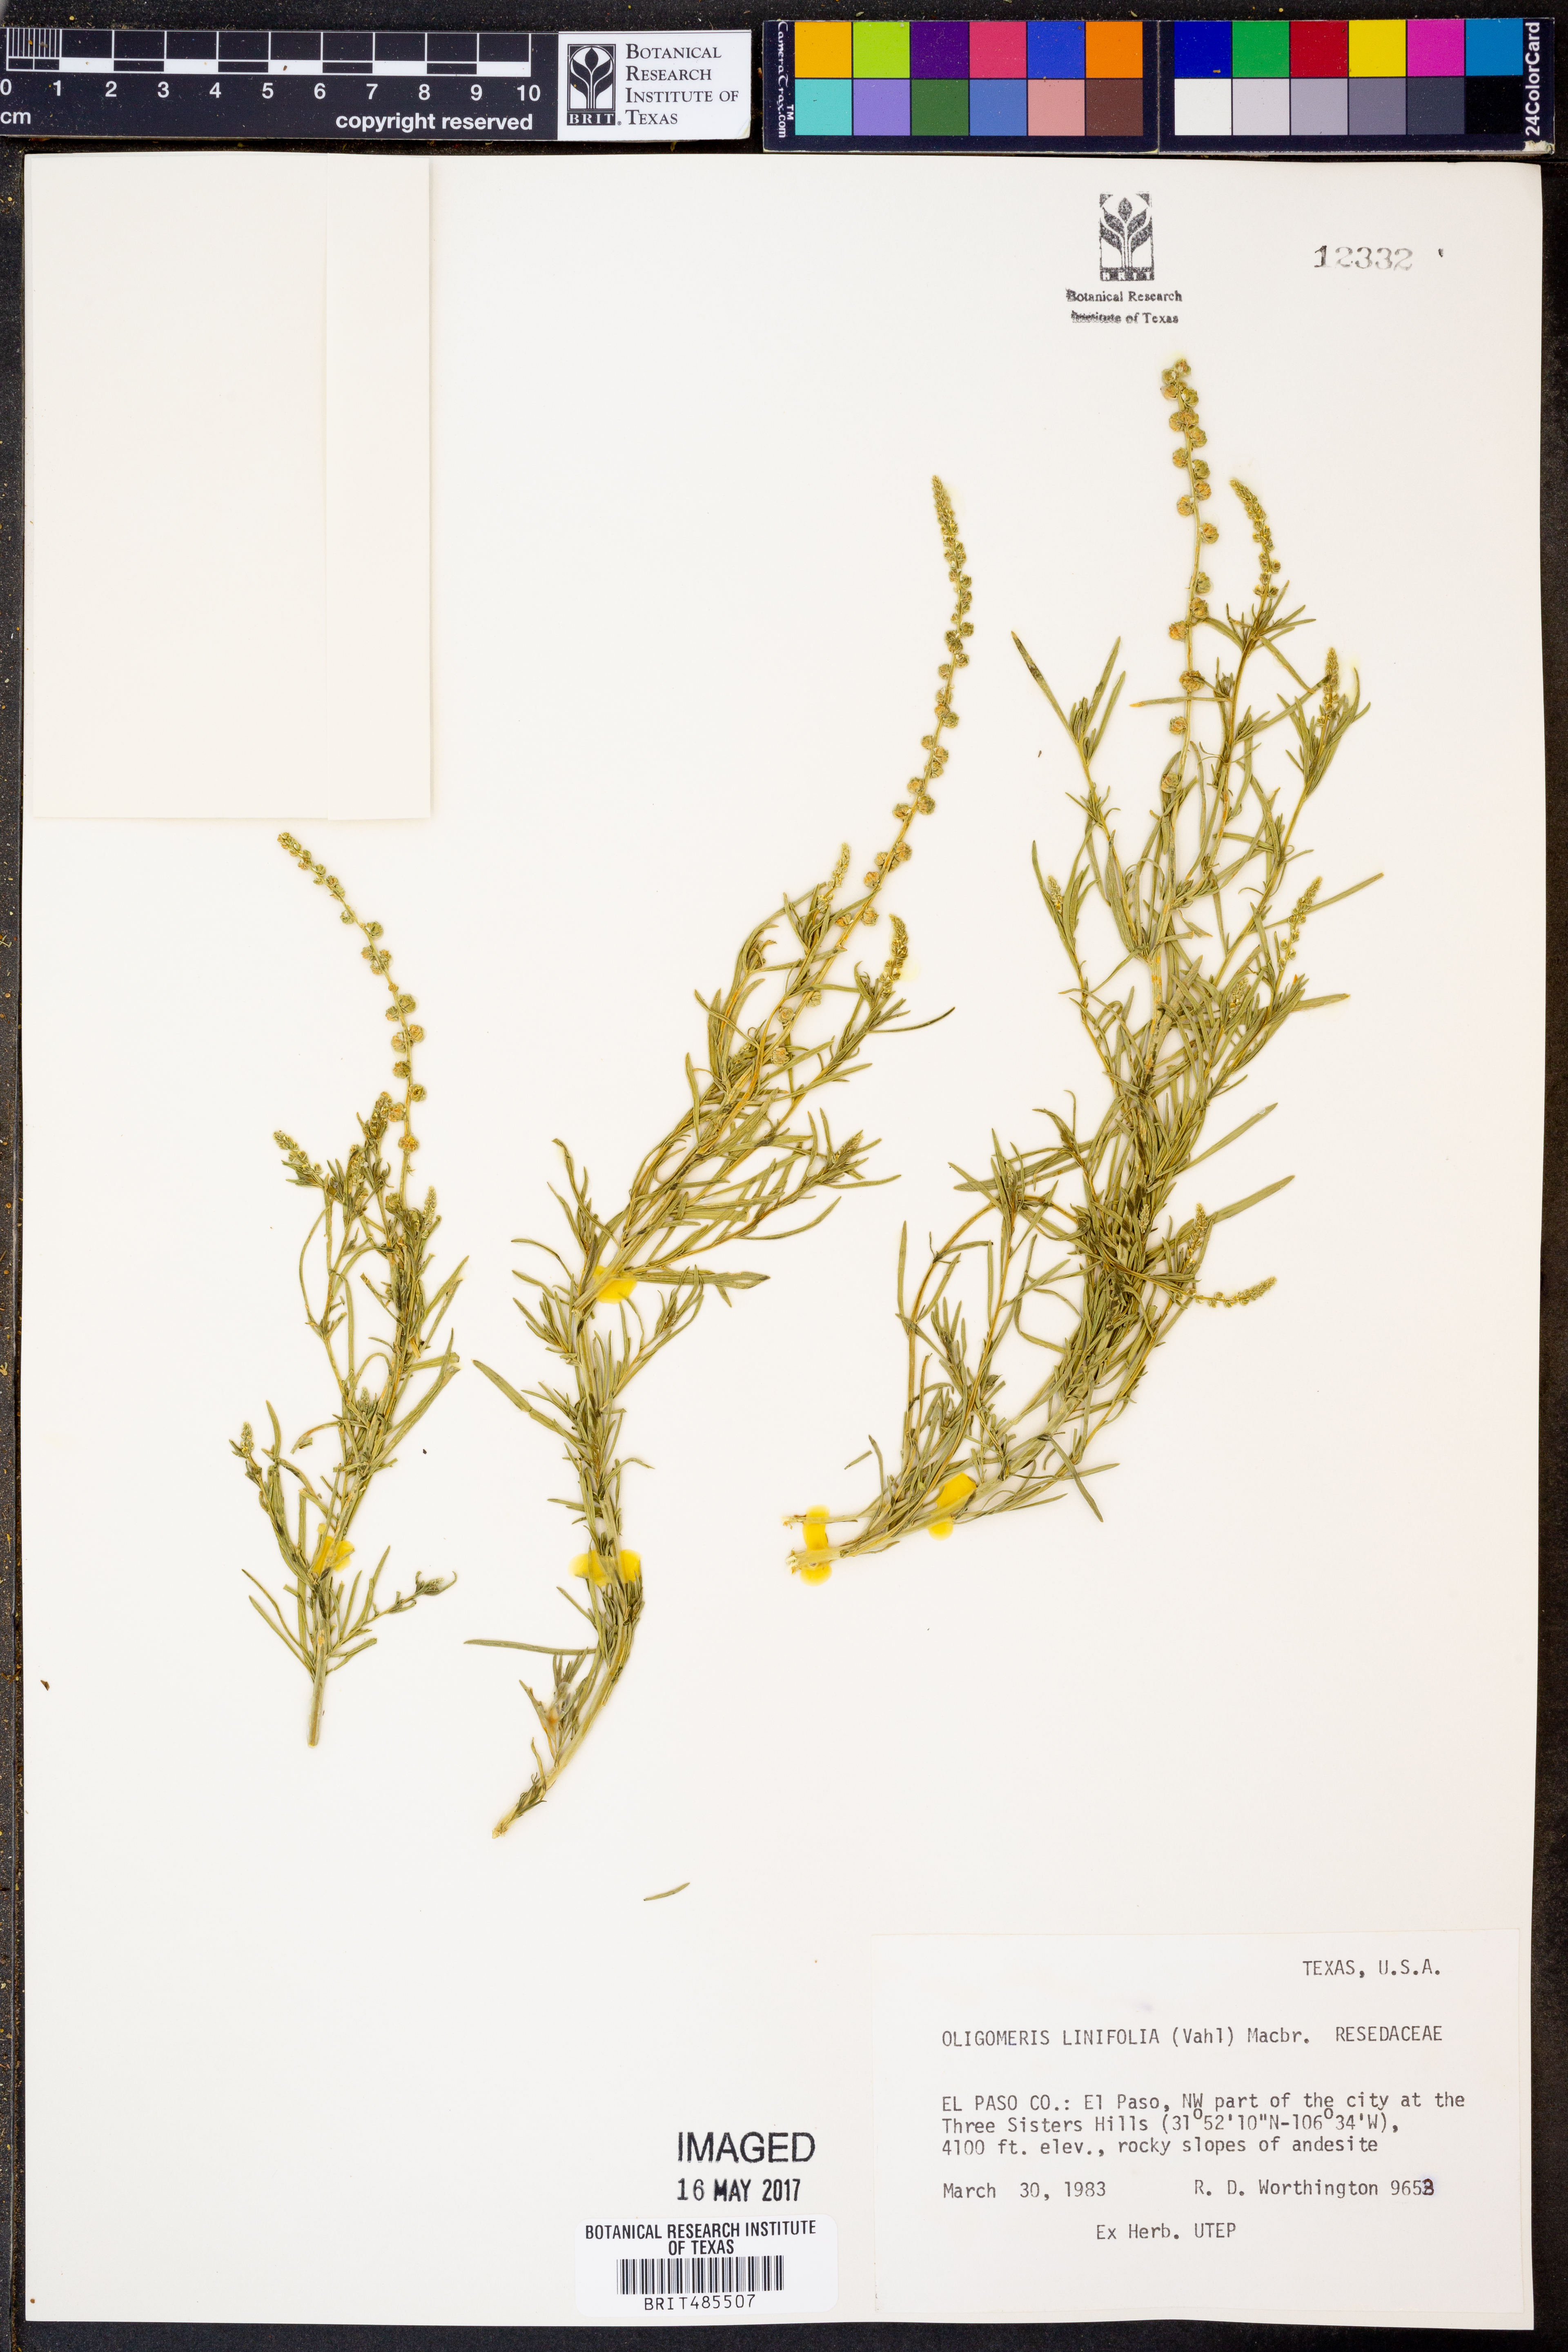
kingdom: Plantae
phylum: Tracheophyta
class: Magnoliopsida
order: Brassicales
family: Resedaceae
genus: Oligomeris
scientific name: Oligomeris linifolia
